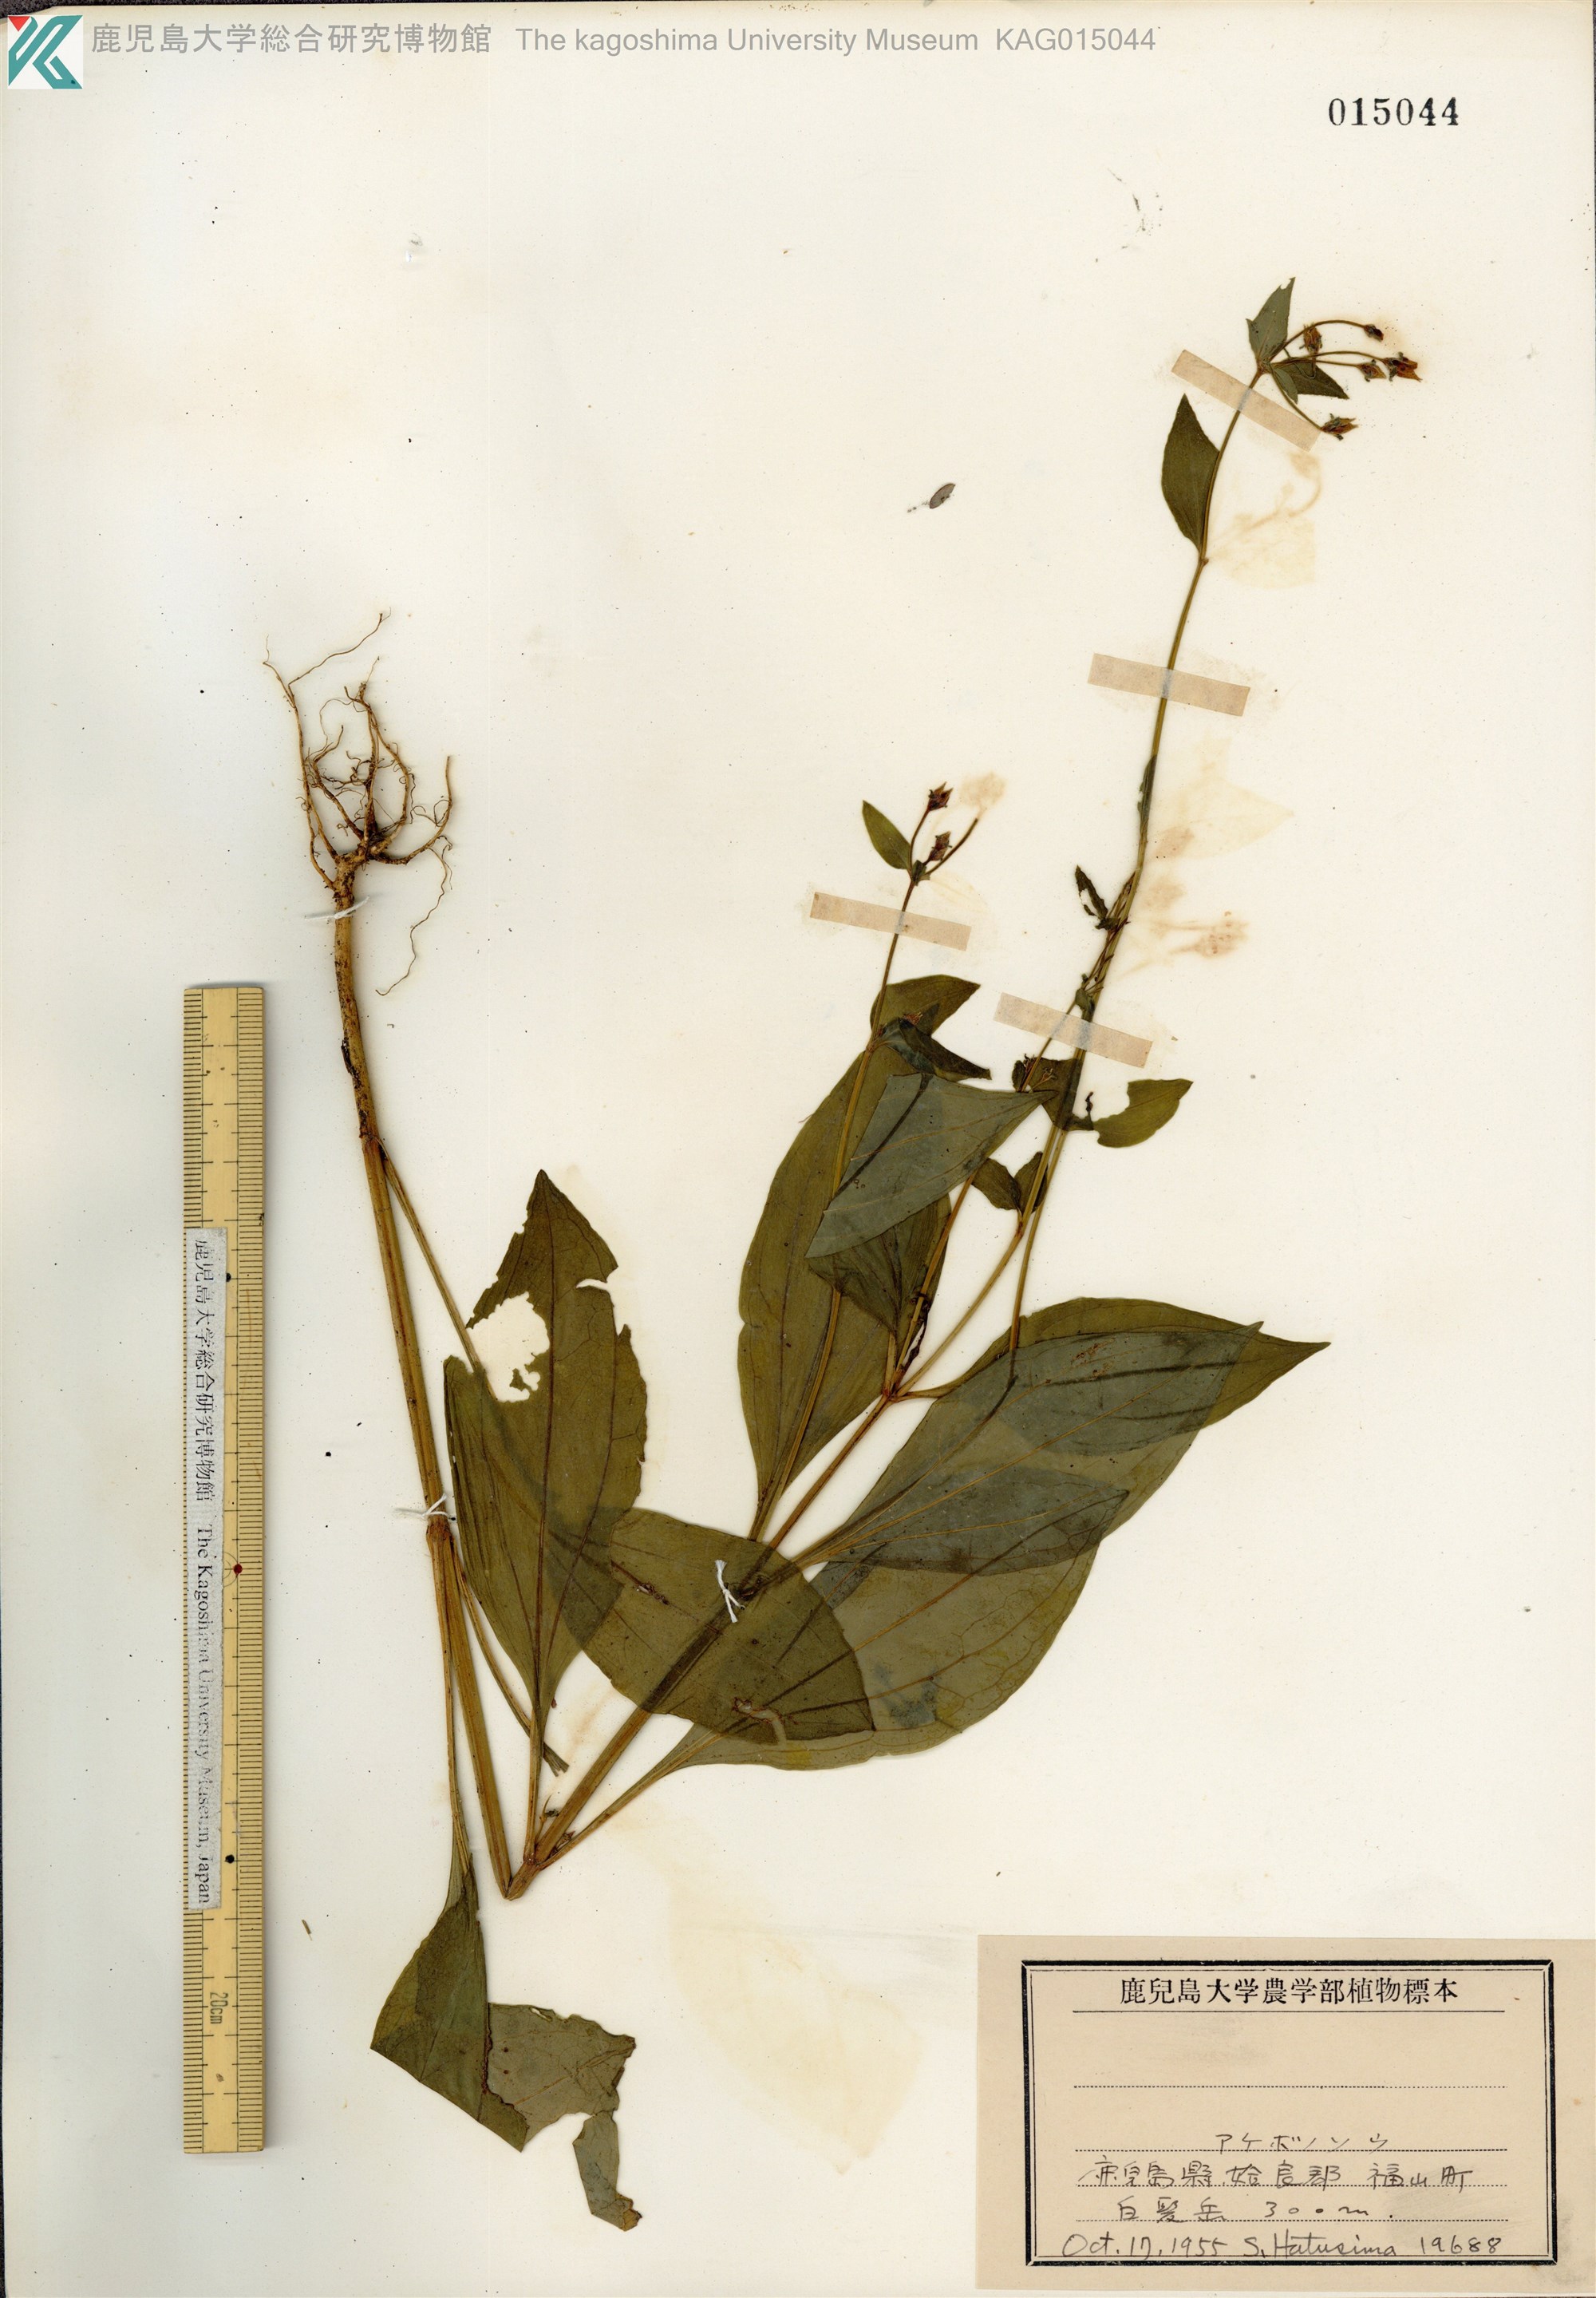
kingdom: Plantae
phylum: Tracheophyta
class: Magnoliopsida
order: Gentianales
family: Gentianaceae
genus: Swertia
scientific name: Swertia bimaculata
